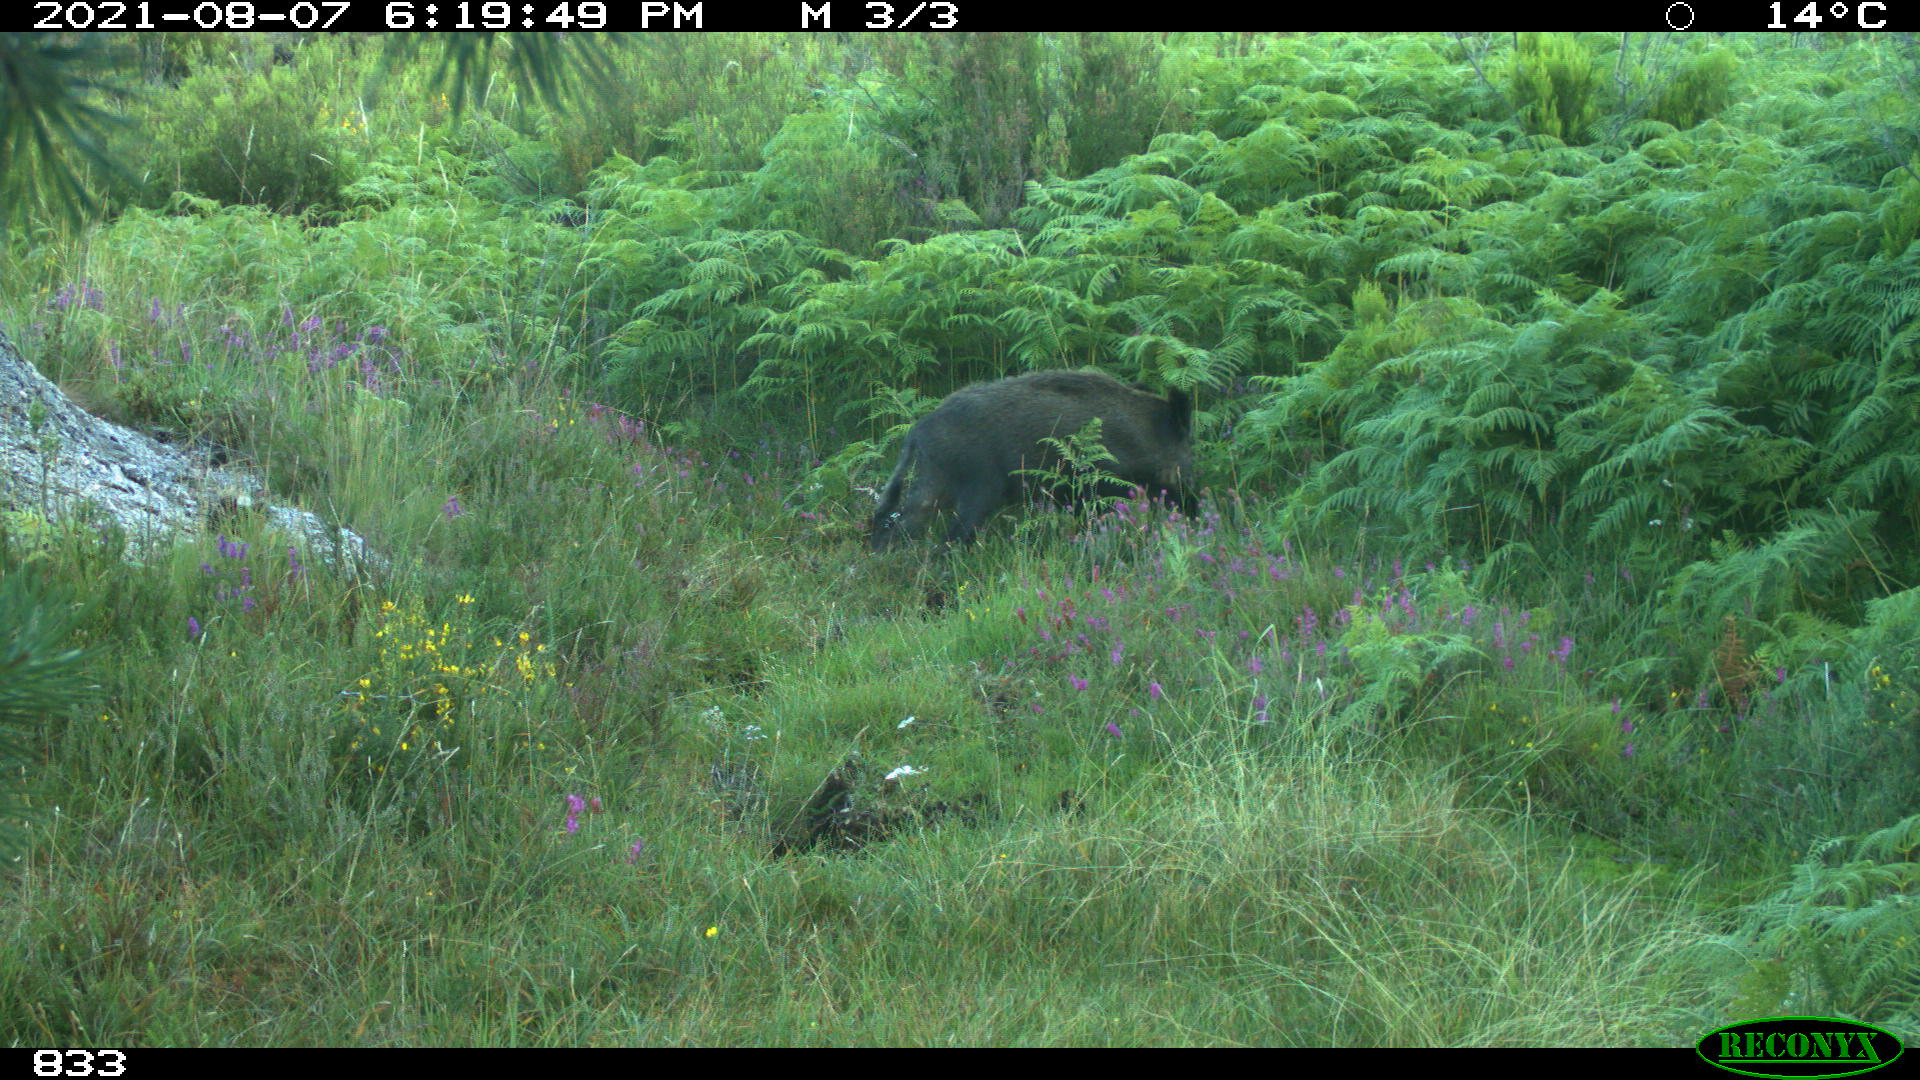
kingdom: Animalia
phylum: Chordata
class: Mammalia
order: Artiodactyla
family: Suidae
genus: Sus
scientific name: Sus scrofa
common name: Wild boar
